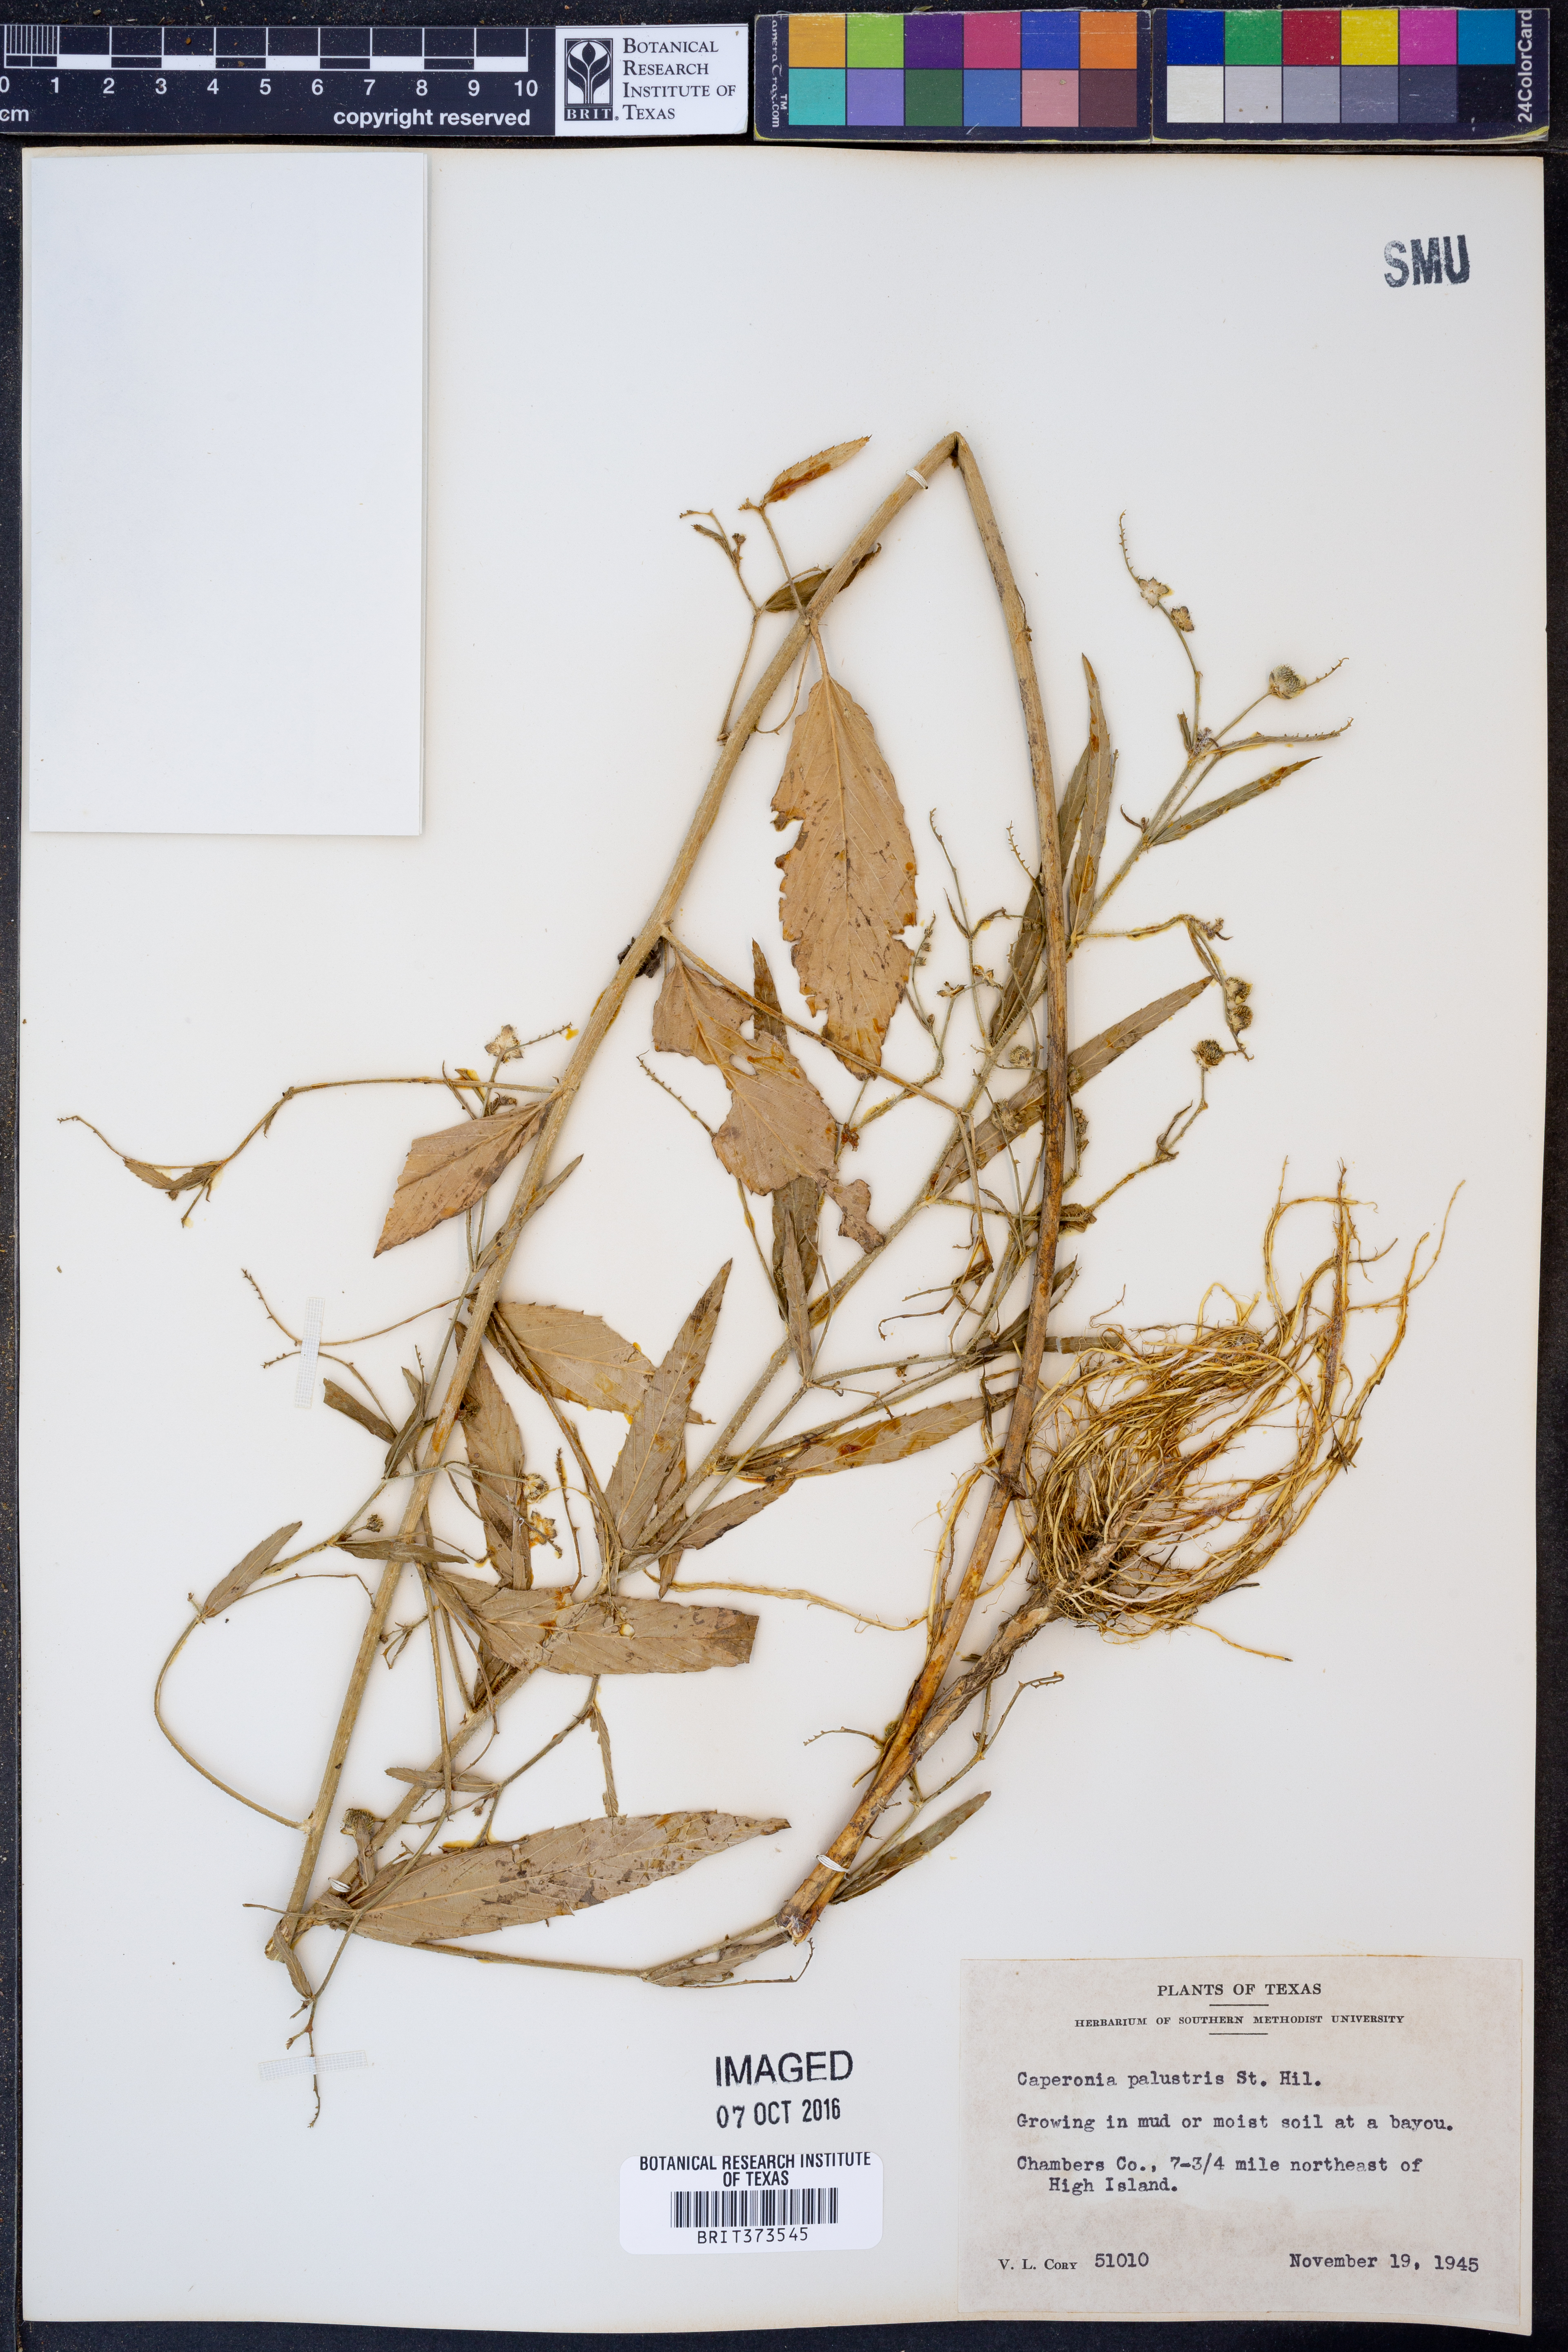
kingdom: Plantae
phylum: Tracheophyta
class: Magnoliopsida
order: Malpighiales
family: Euphorbiaceae
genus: Caperonia
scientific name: Caperonia palustris
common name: Sacatrapo
